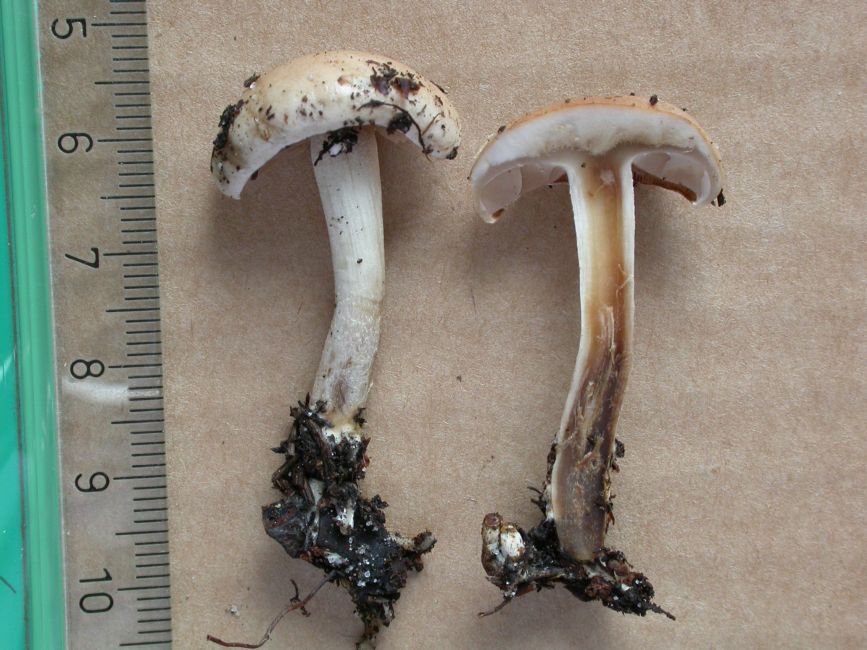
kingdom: Fungi
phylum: Basidiomycota
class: Agaricomycetes
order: Agaricales
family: Hymenogastraceae
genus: Hebeloma
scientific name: Hebeloma cylindrosporum
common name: fyrre-tåreblad
